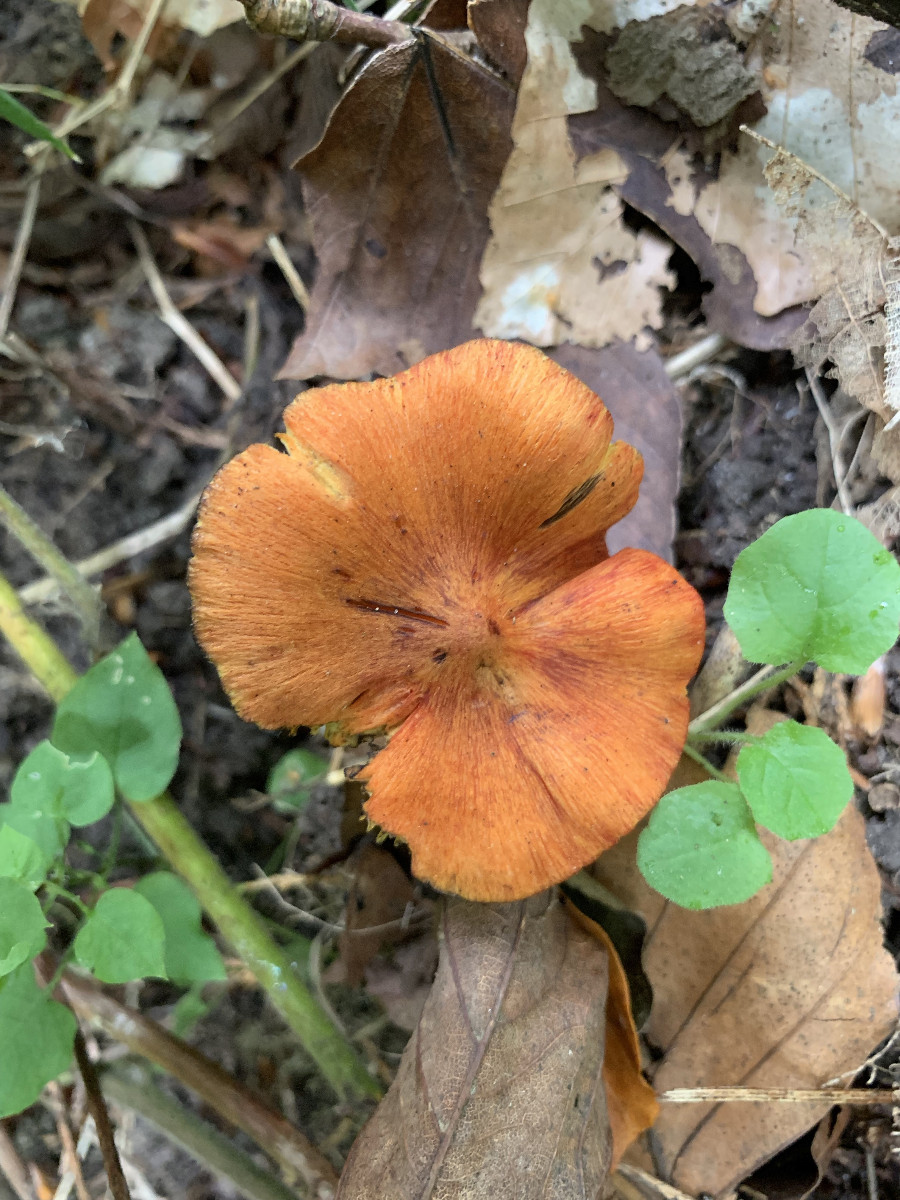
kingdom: Fungi
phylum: Basidiomycota
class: Agaricomycetes
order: Agaricales
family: Hygrophoraceae
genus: Hygrocybe
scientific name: Hygrocybe conica
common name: kegle-vokshat
